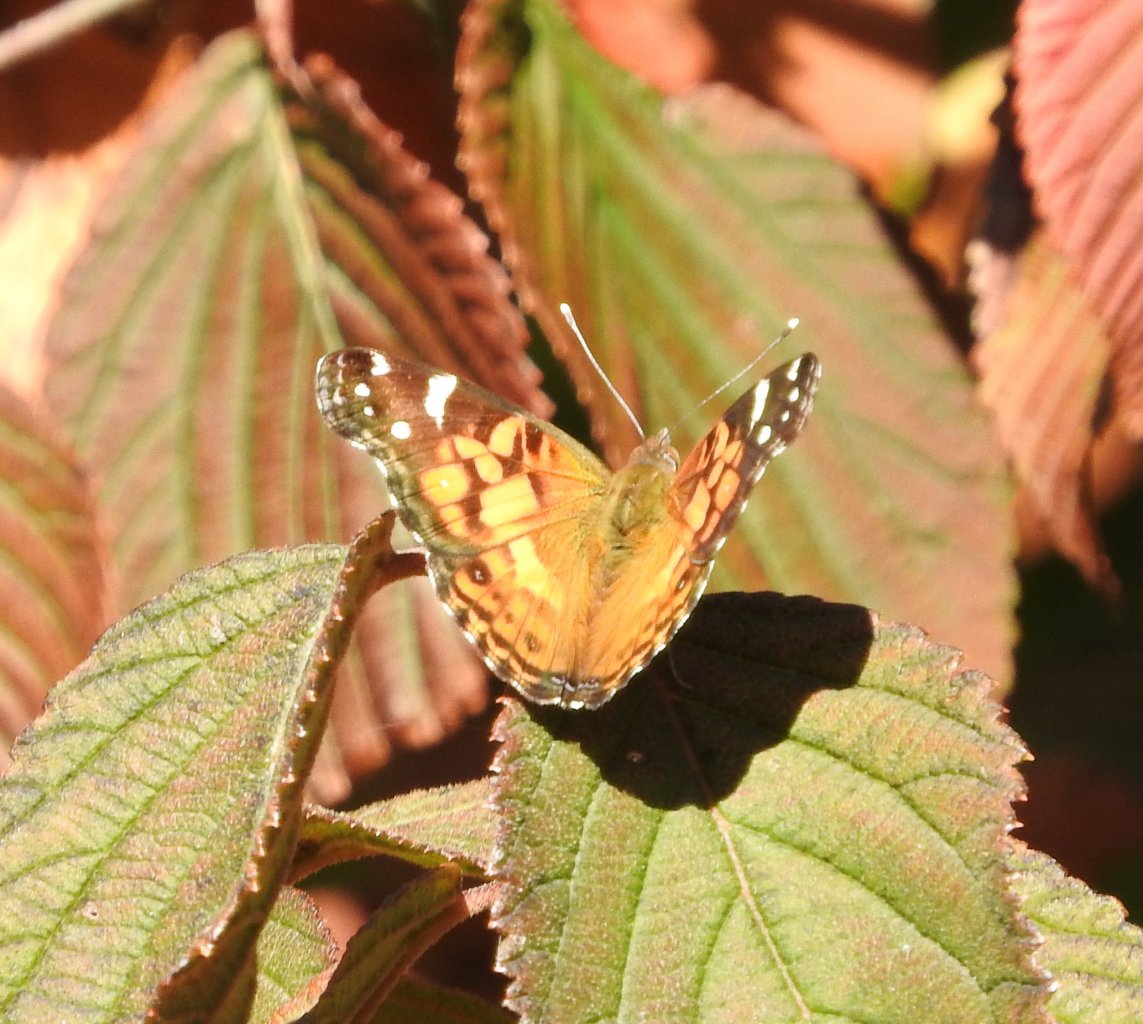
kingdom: Animalia
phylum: Arthropoda
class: Insecta
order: Lepidoptera
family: Nymphalidae
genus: Vanessa
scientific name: Vanessa virginiensis
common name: American Lady
